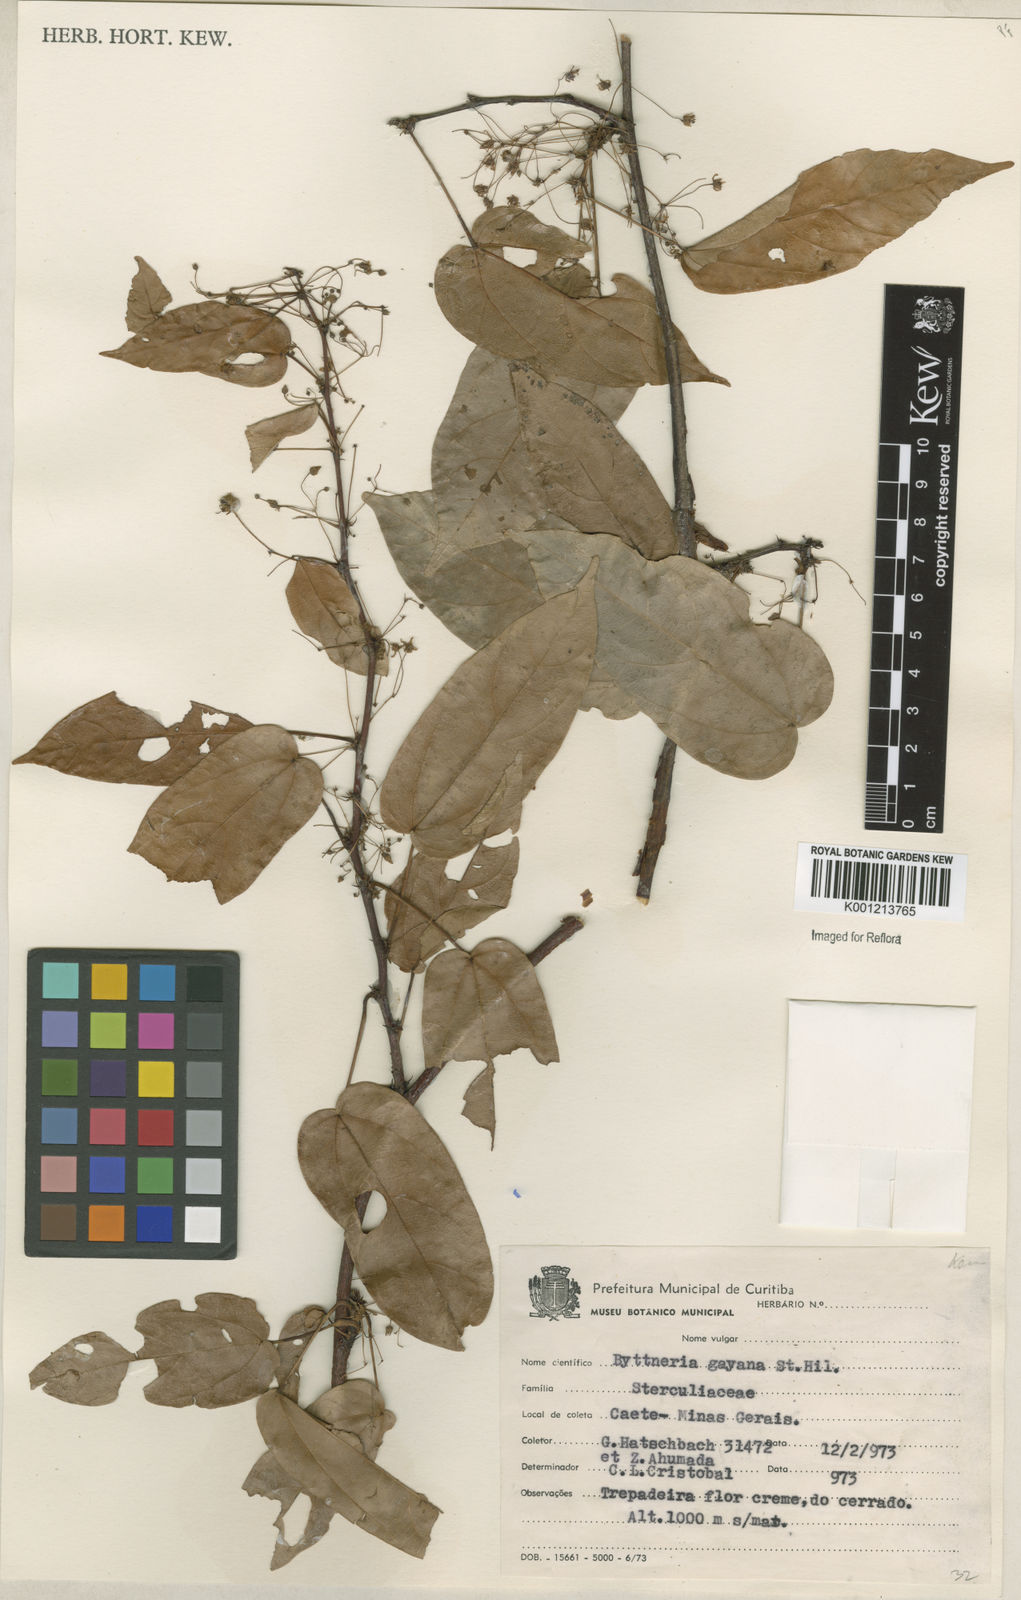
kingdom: Plantae
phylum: Tracheophyta
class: Magnoliopsida
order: Malvales
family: Malvaceae
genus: Byttneria
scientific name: Byttneria gayana
